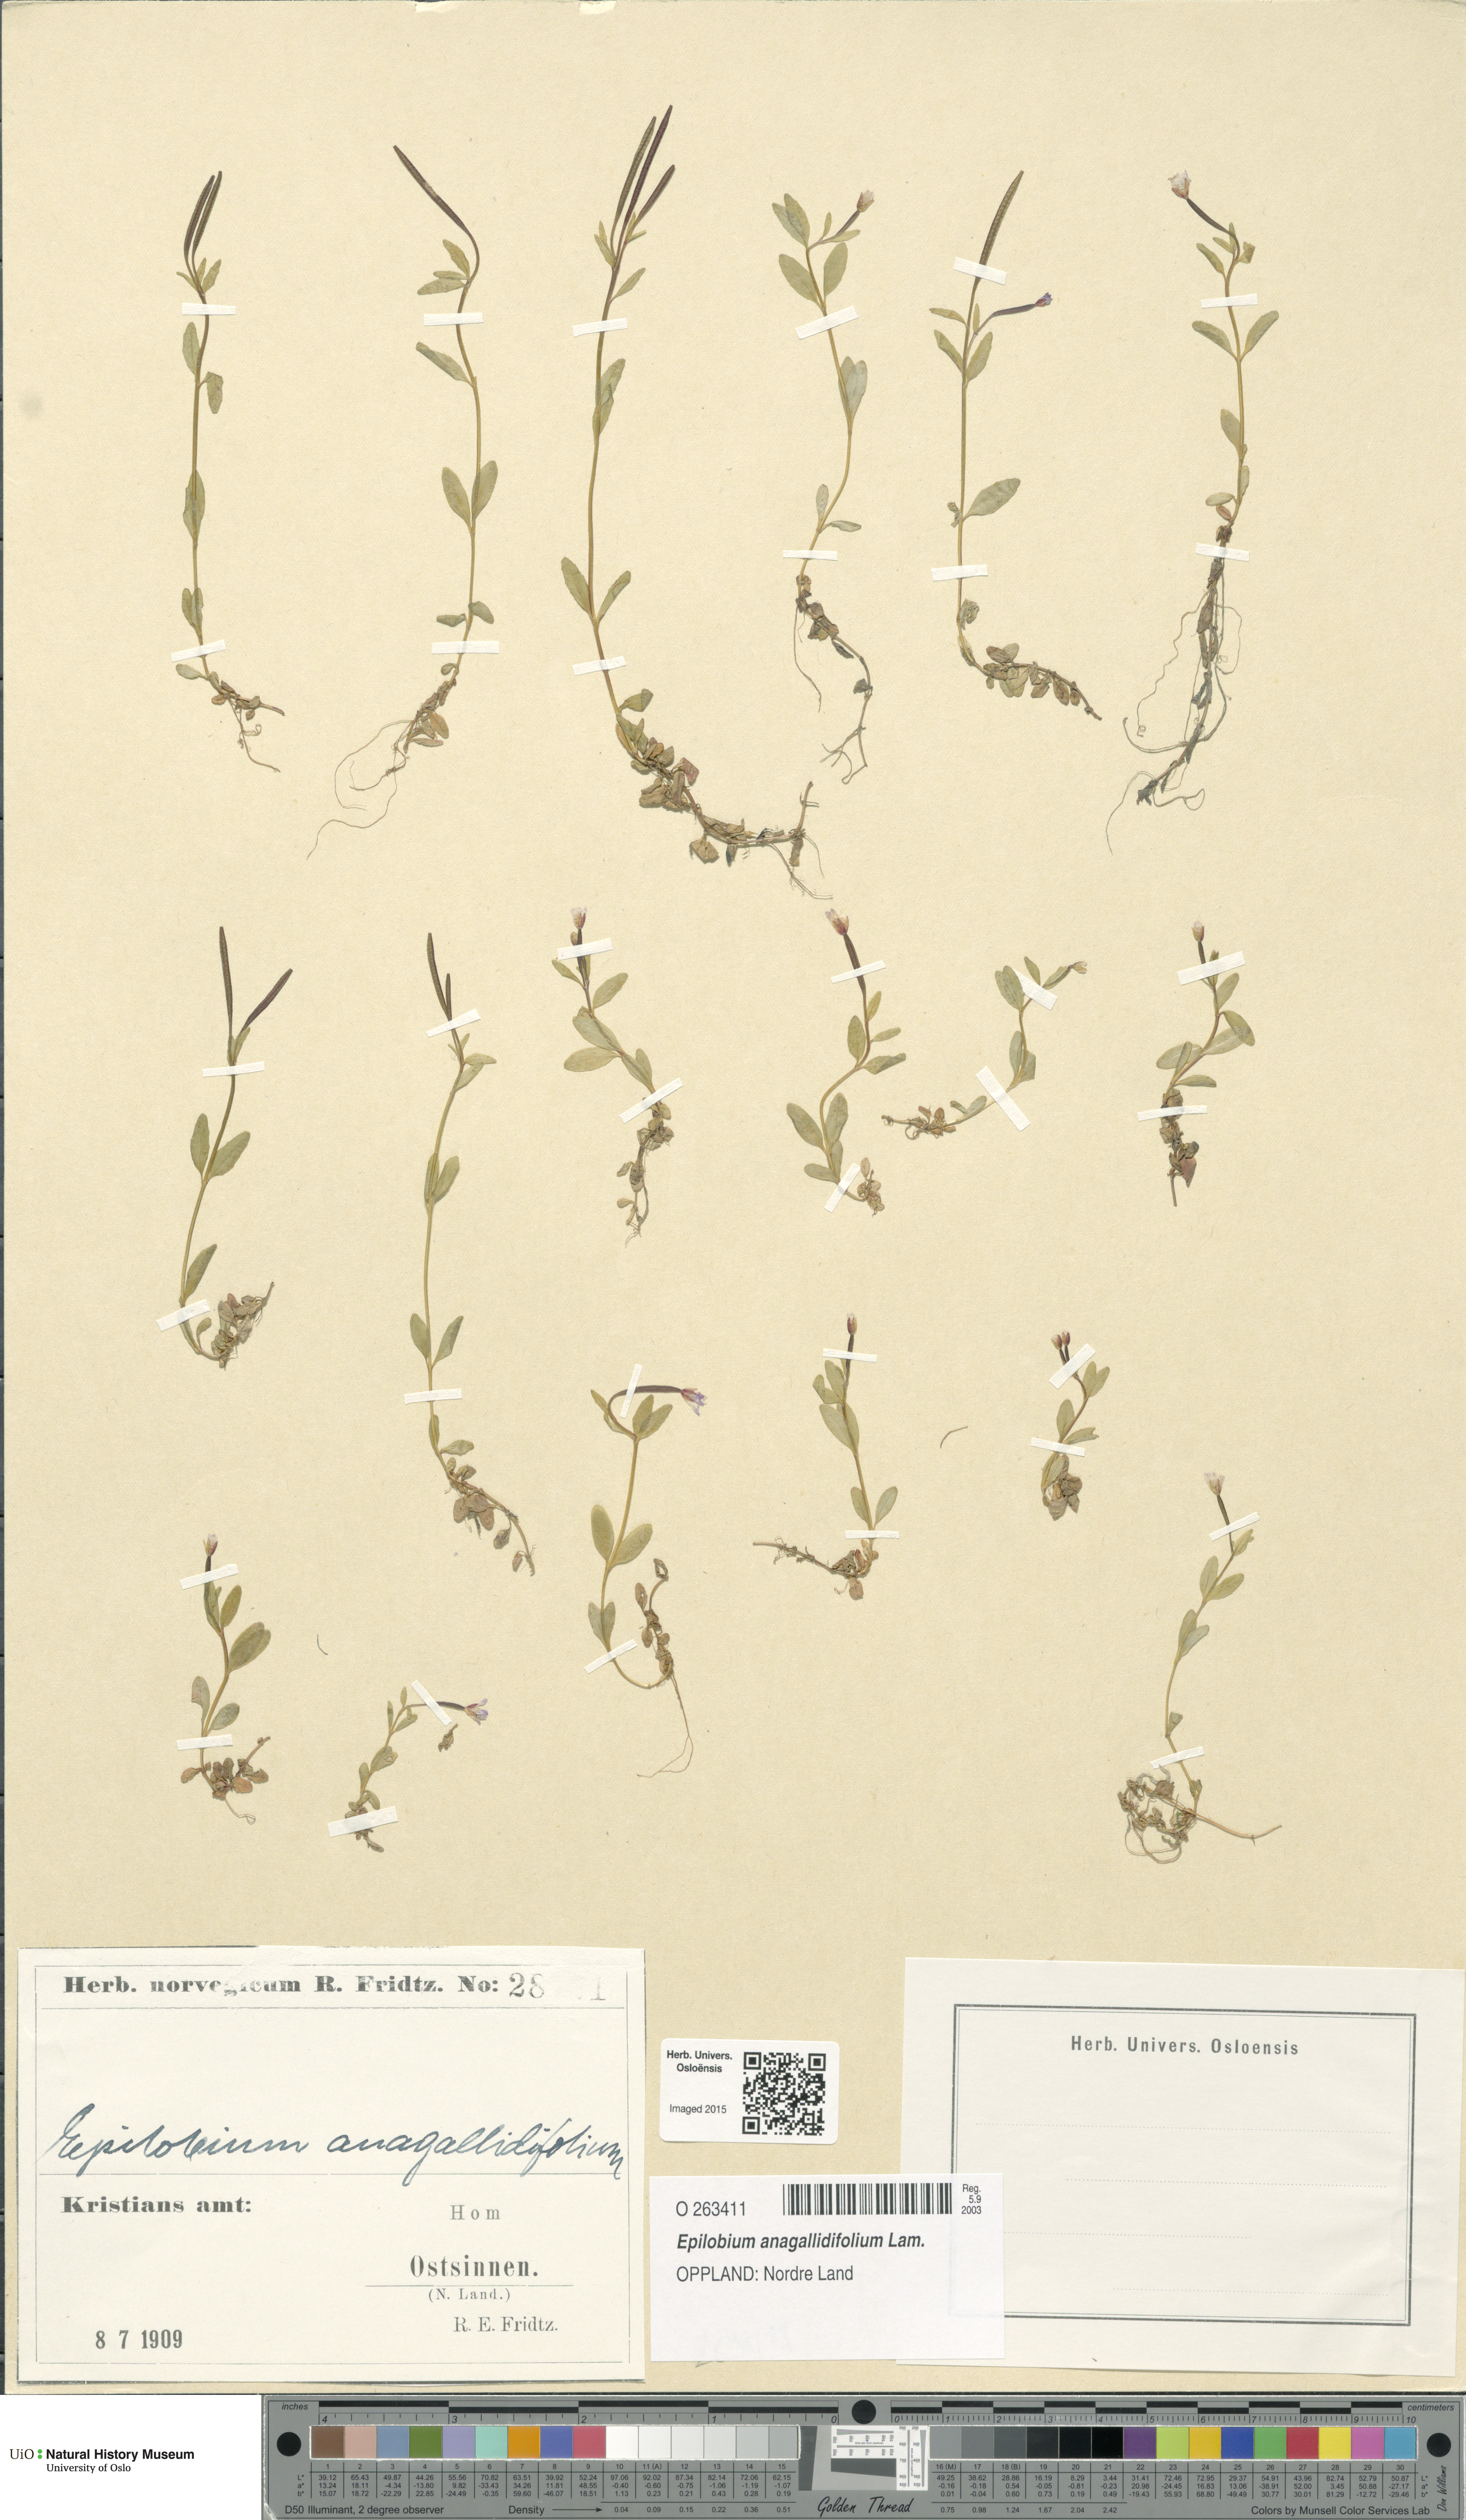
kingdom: Plantae
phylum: Tracheophyta
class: Magnoliopsida
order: Myrtales
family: Onagraceae
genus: Epilobium
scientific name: Epilobium anagallidifolium
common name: Alpine willowherb
